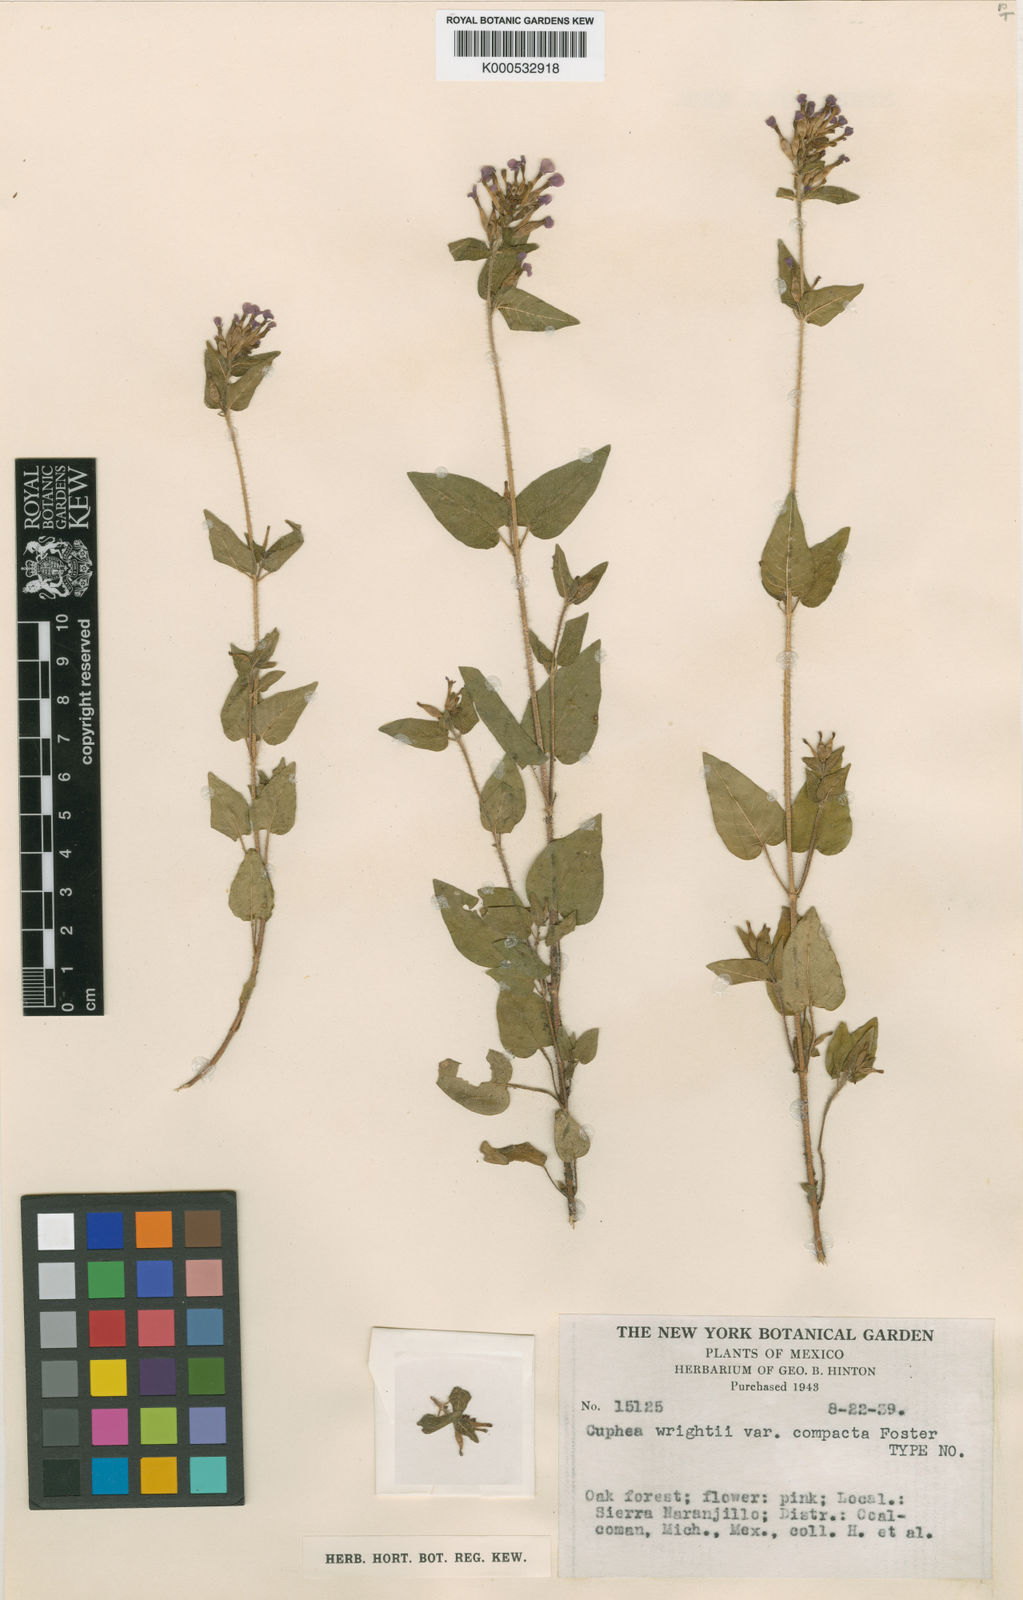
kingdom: Plantae
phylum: Tracheophyta
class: Magnoliopsida
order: Myrtales
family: Lythraceae
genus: Cuphea
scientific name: Cuphea tolucana
